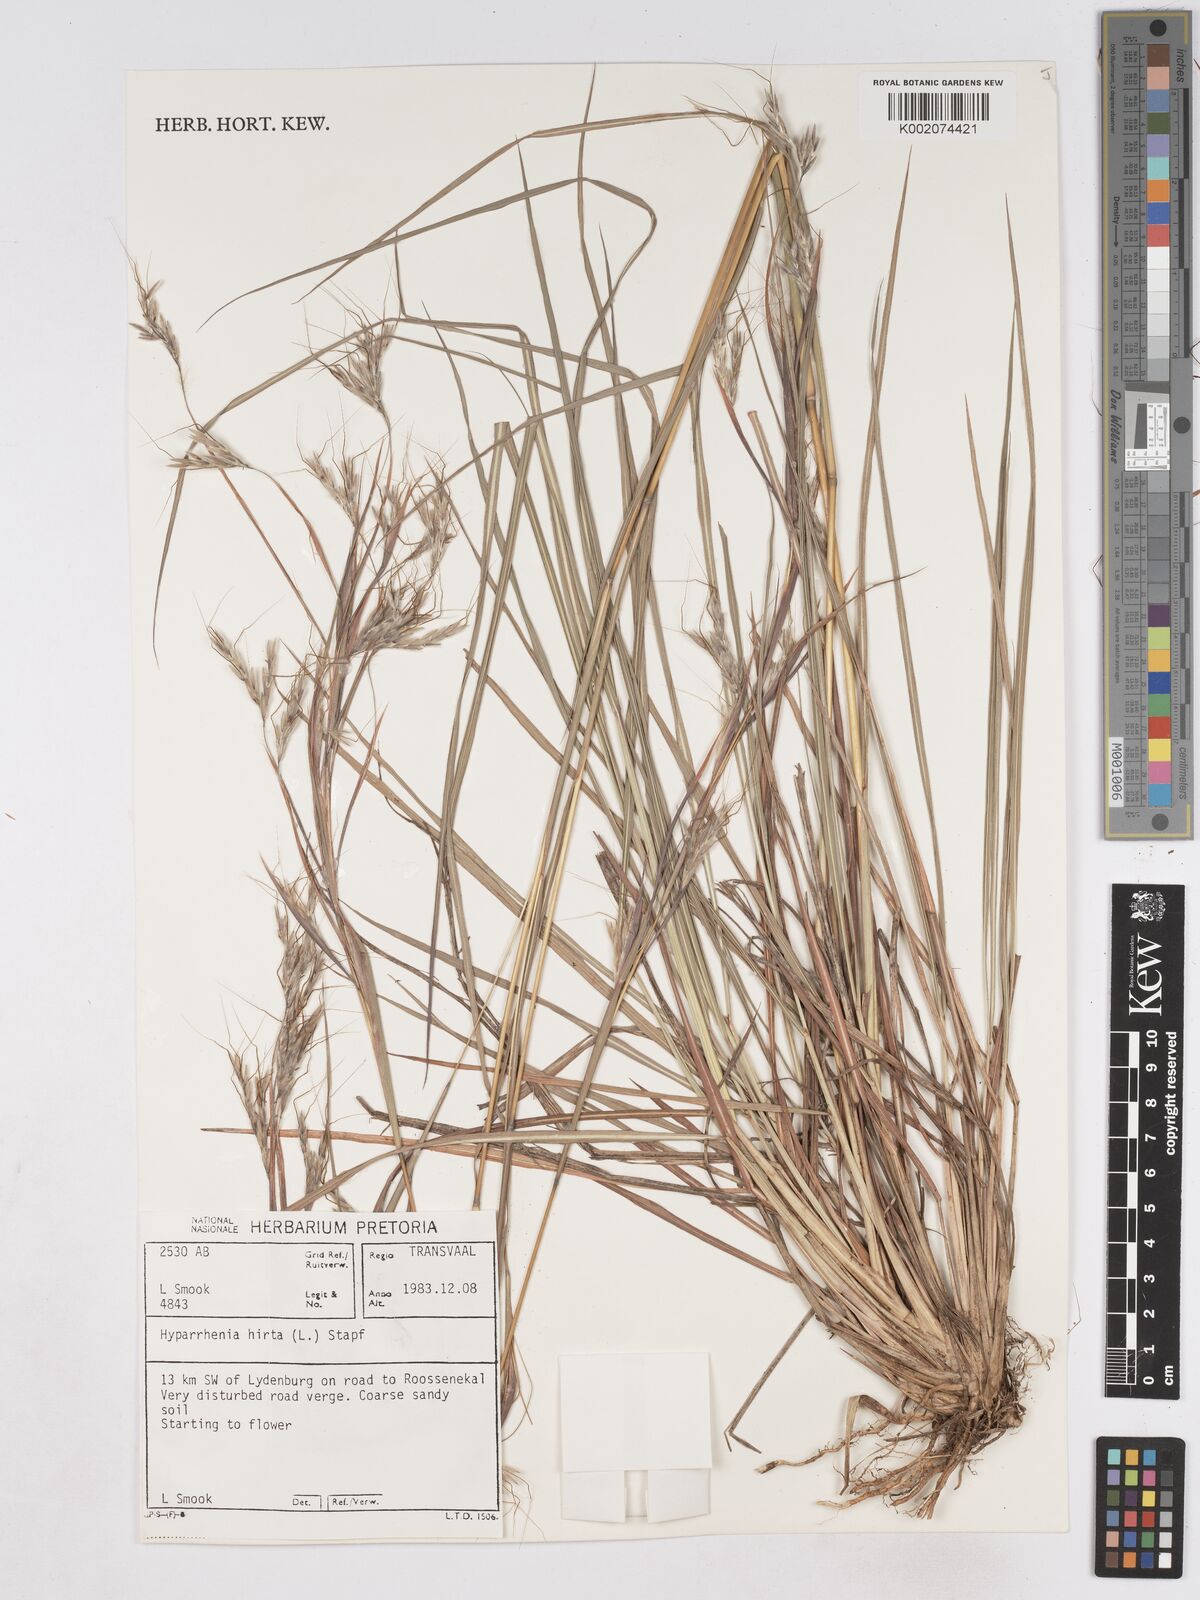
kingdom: Plantae
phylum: Tracheophyta
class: Liliopsida
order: Poales
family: Poaceae
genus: Hyparrhenia
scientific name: Hyparrhenia hirta
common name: Thatching grass
